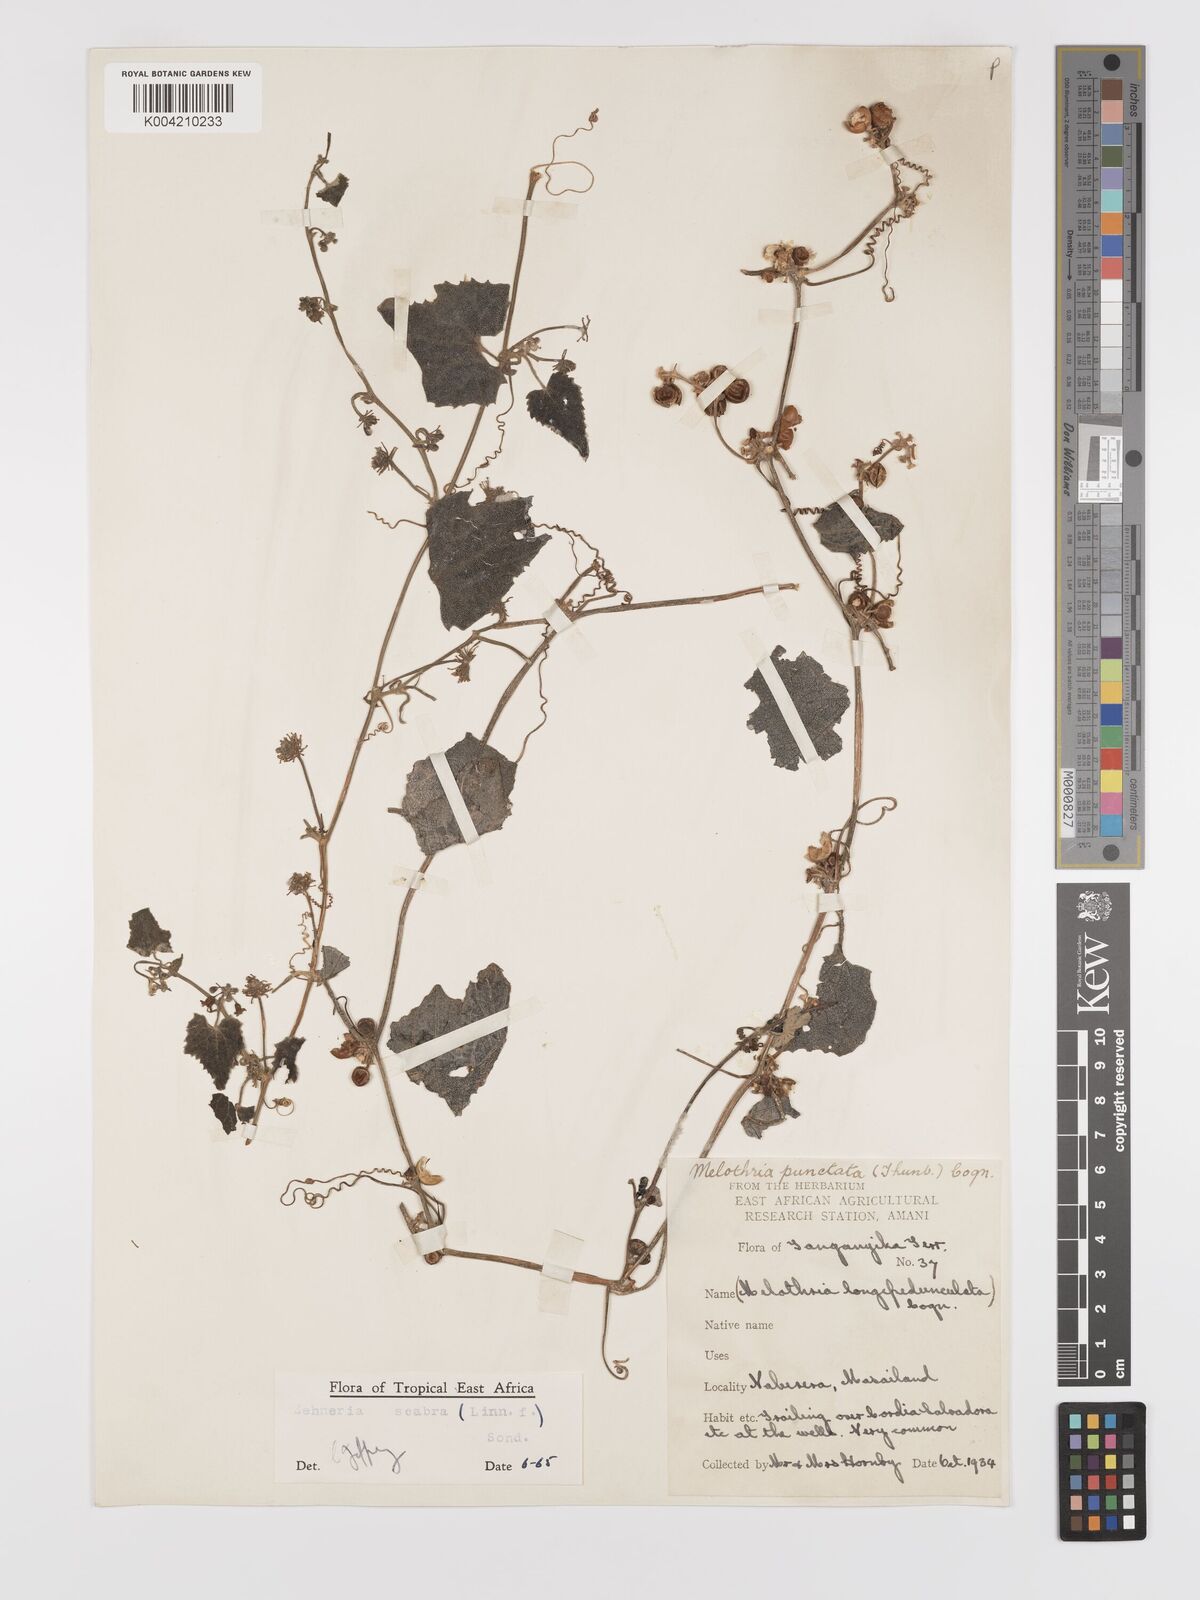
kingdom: Plantae
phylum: Tracheophyta
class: Magnoliopsida
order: Cucurbitales
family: Cucurbitaceae
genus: Zehneria
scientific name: Zehneria scabra
